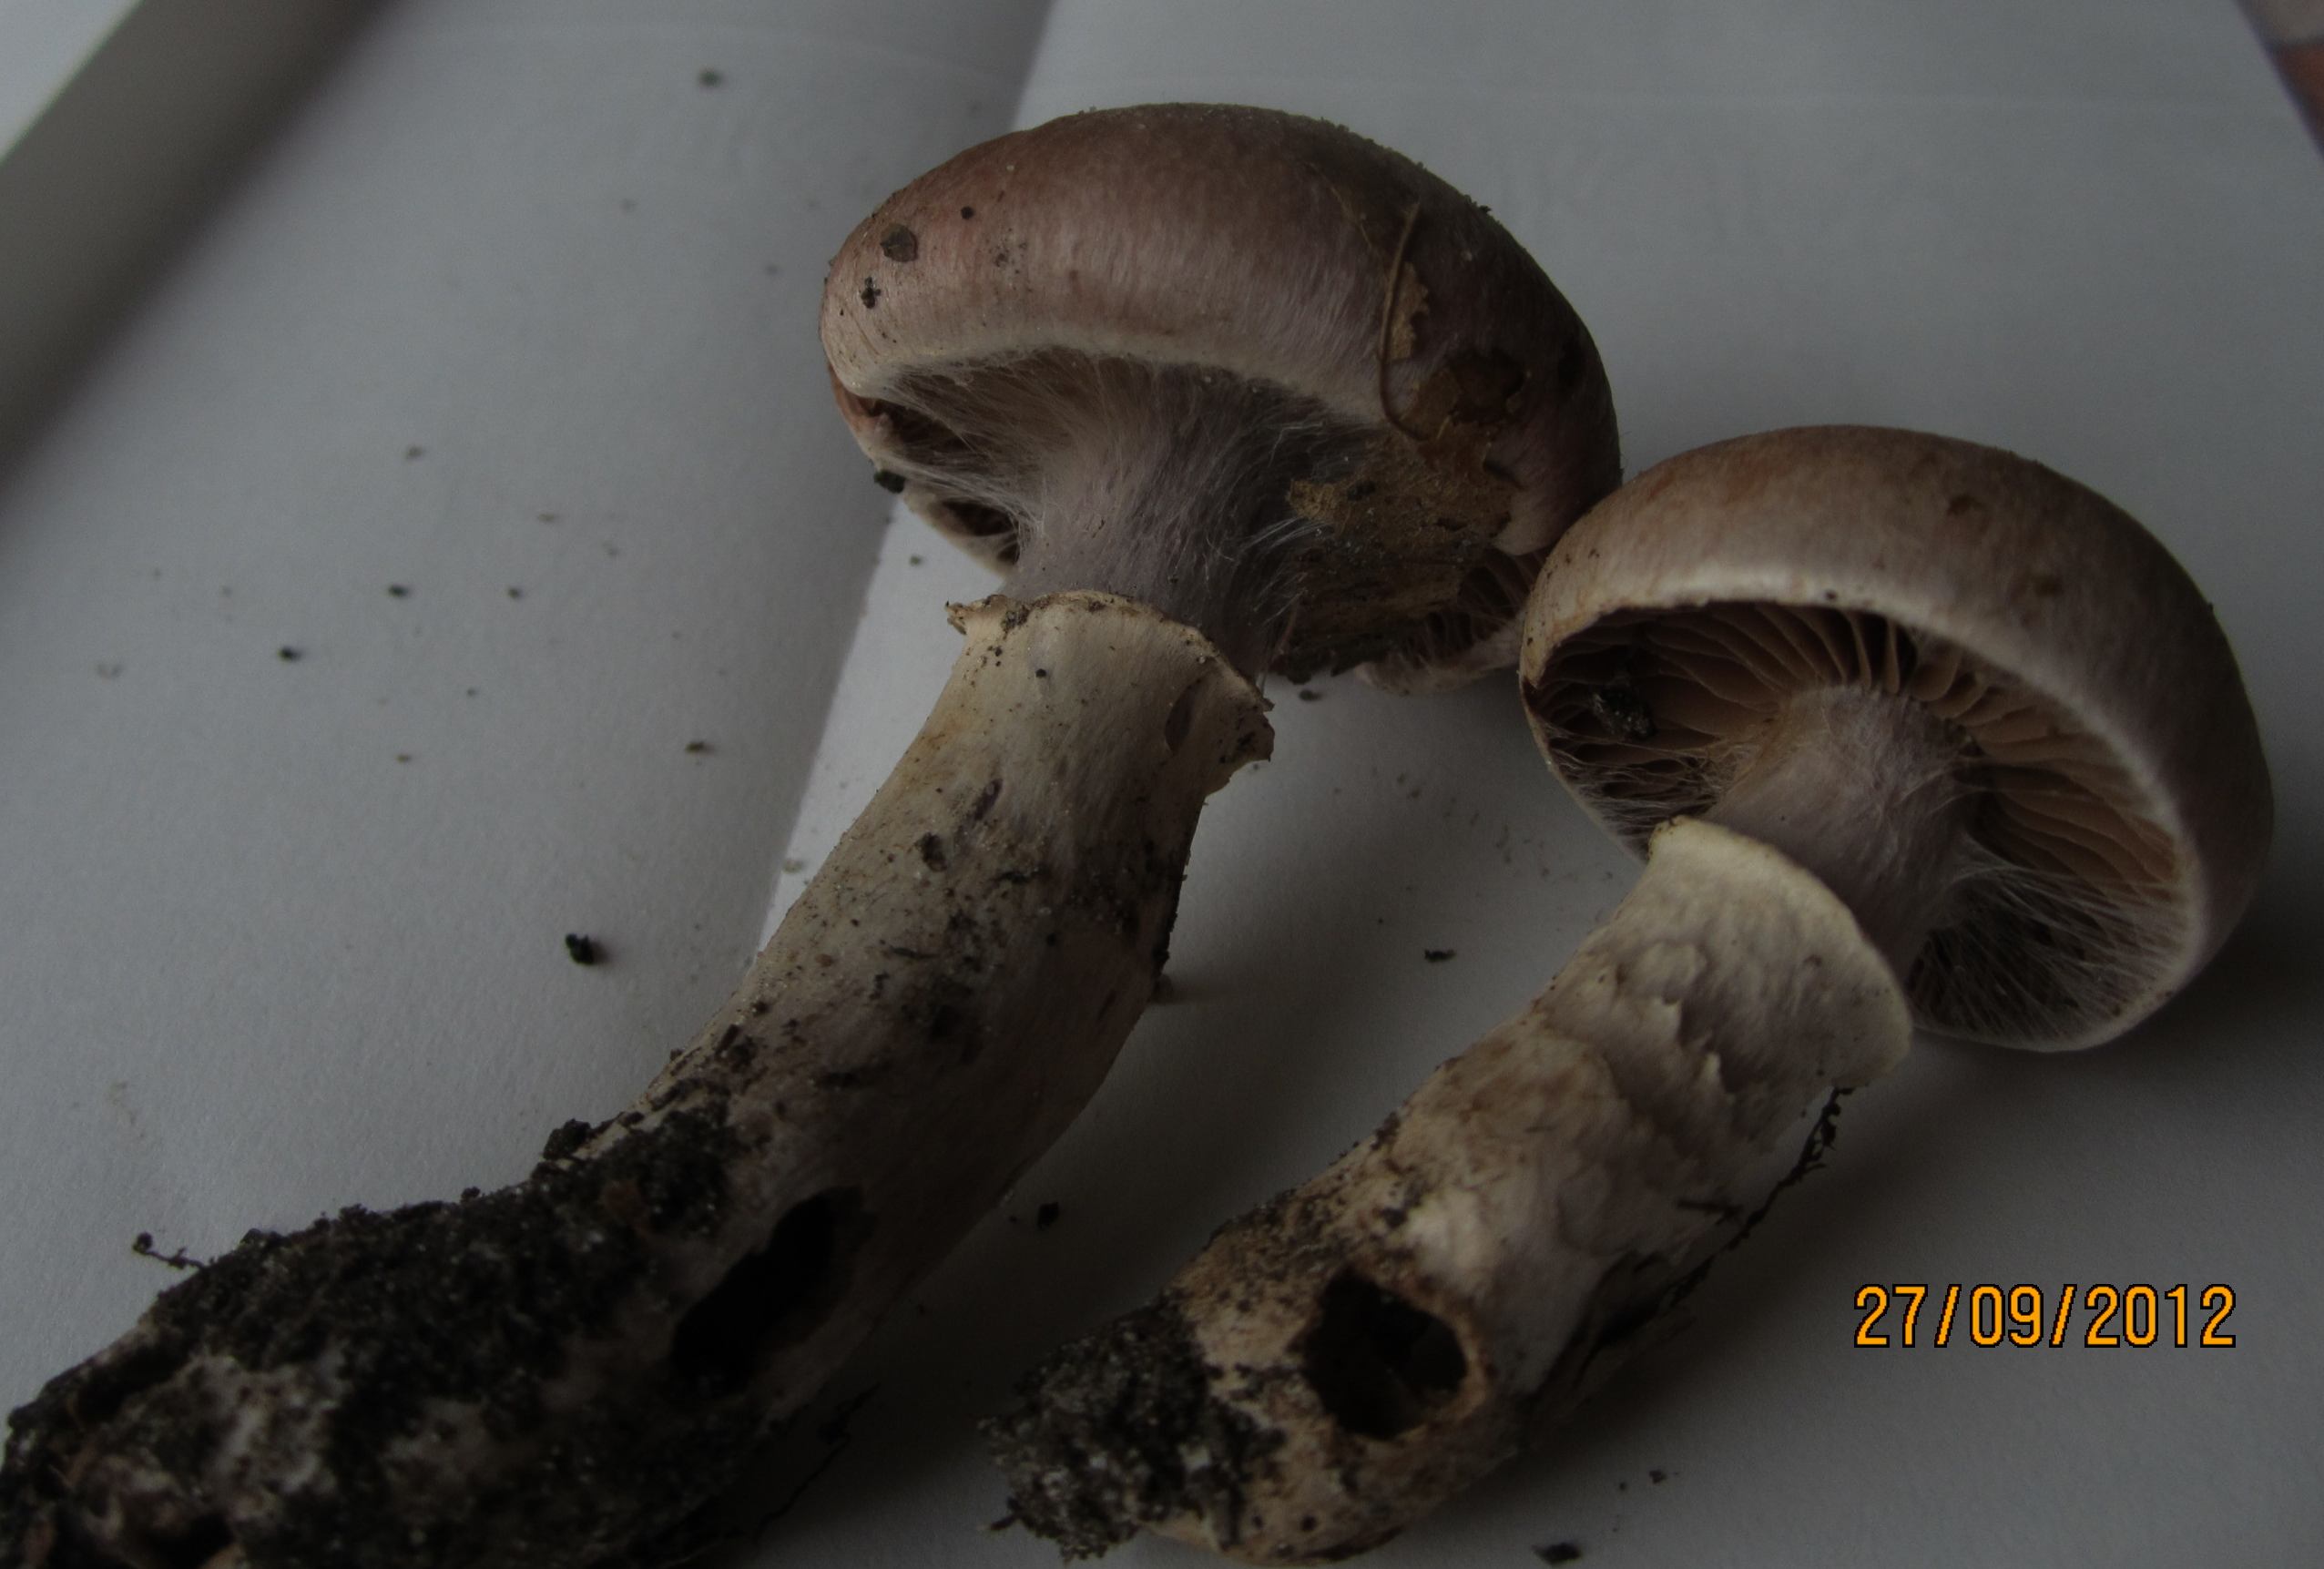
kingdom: Fungi
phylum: Basidiomycota
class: Agaricomycetes
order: Agaricales
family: Cortinariaceae
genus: Cortinarius
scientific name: Cortinarius torvus
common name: champignonagtig slørhat
